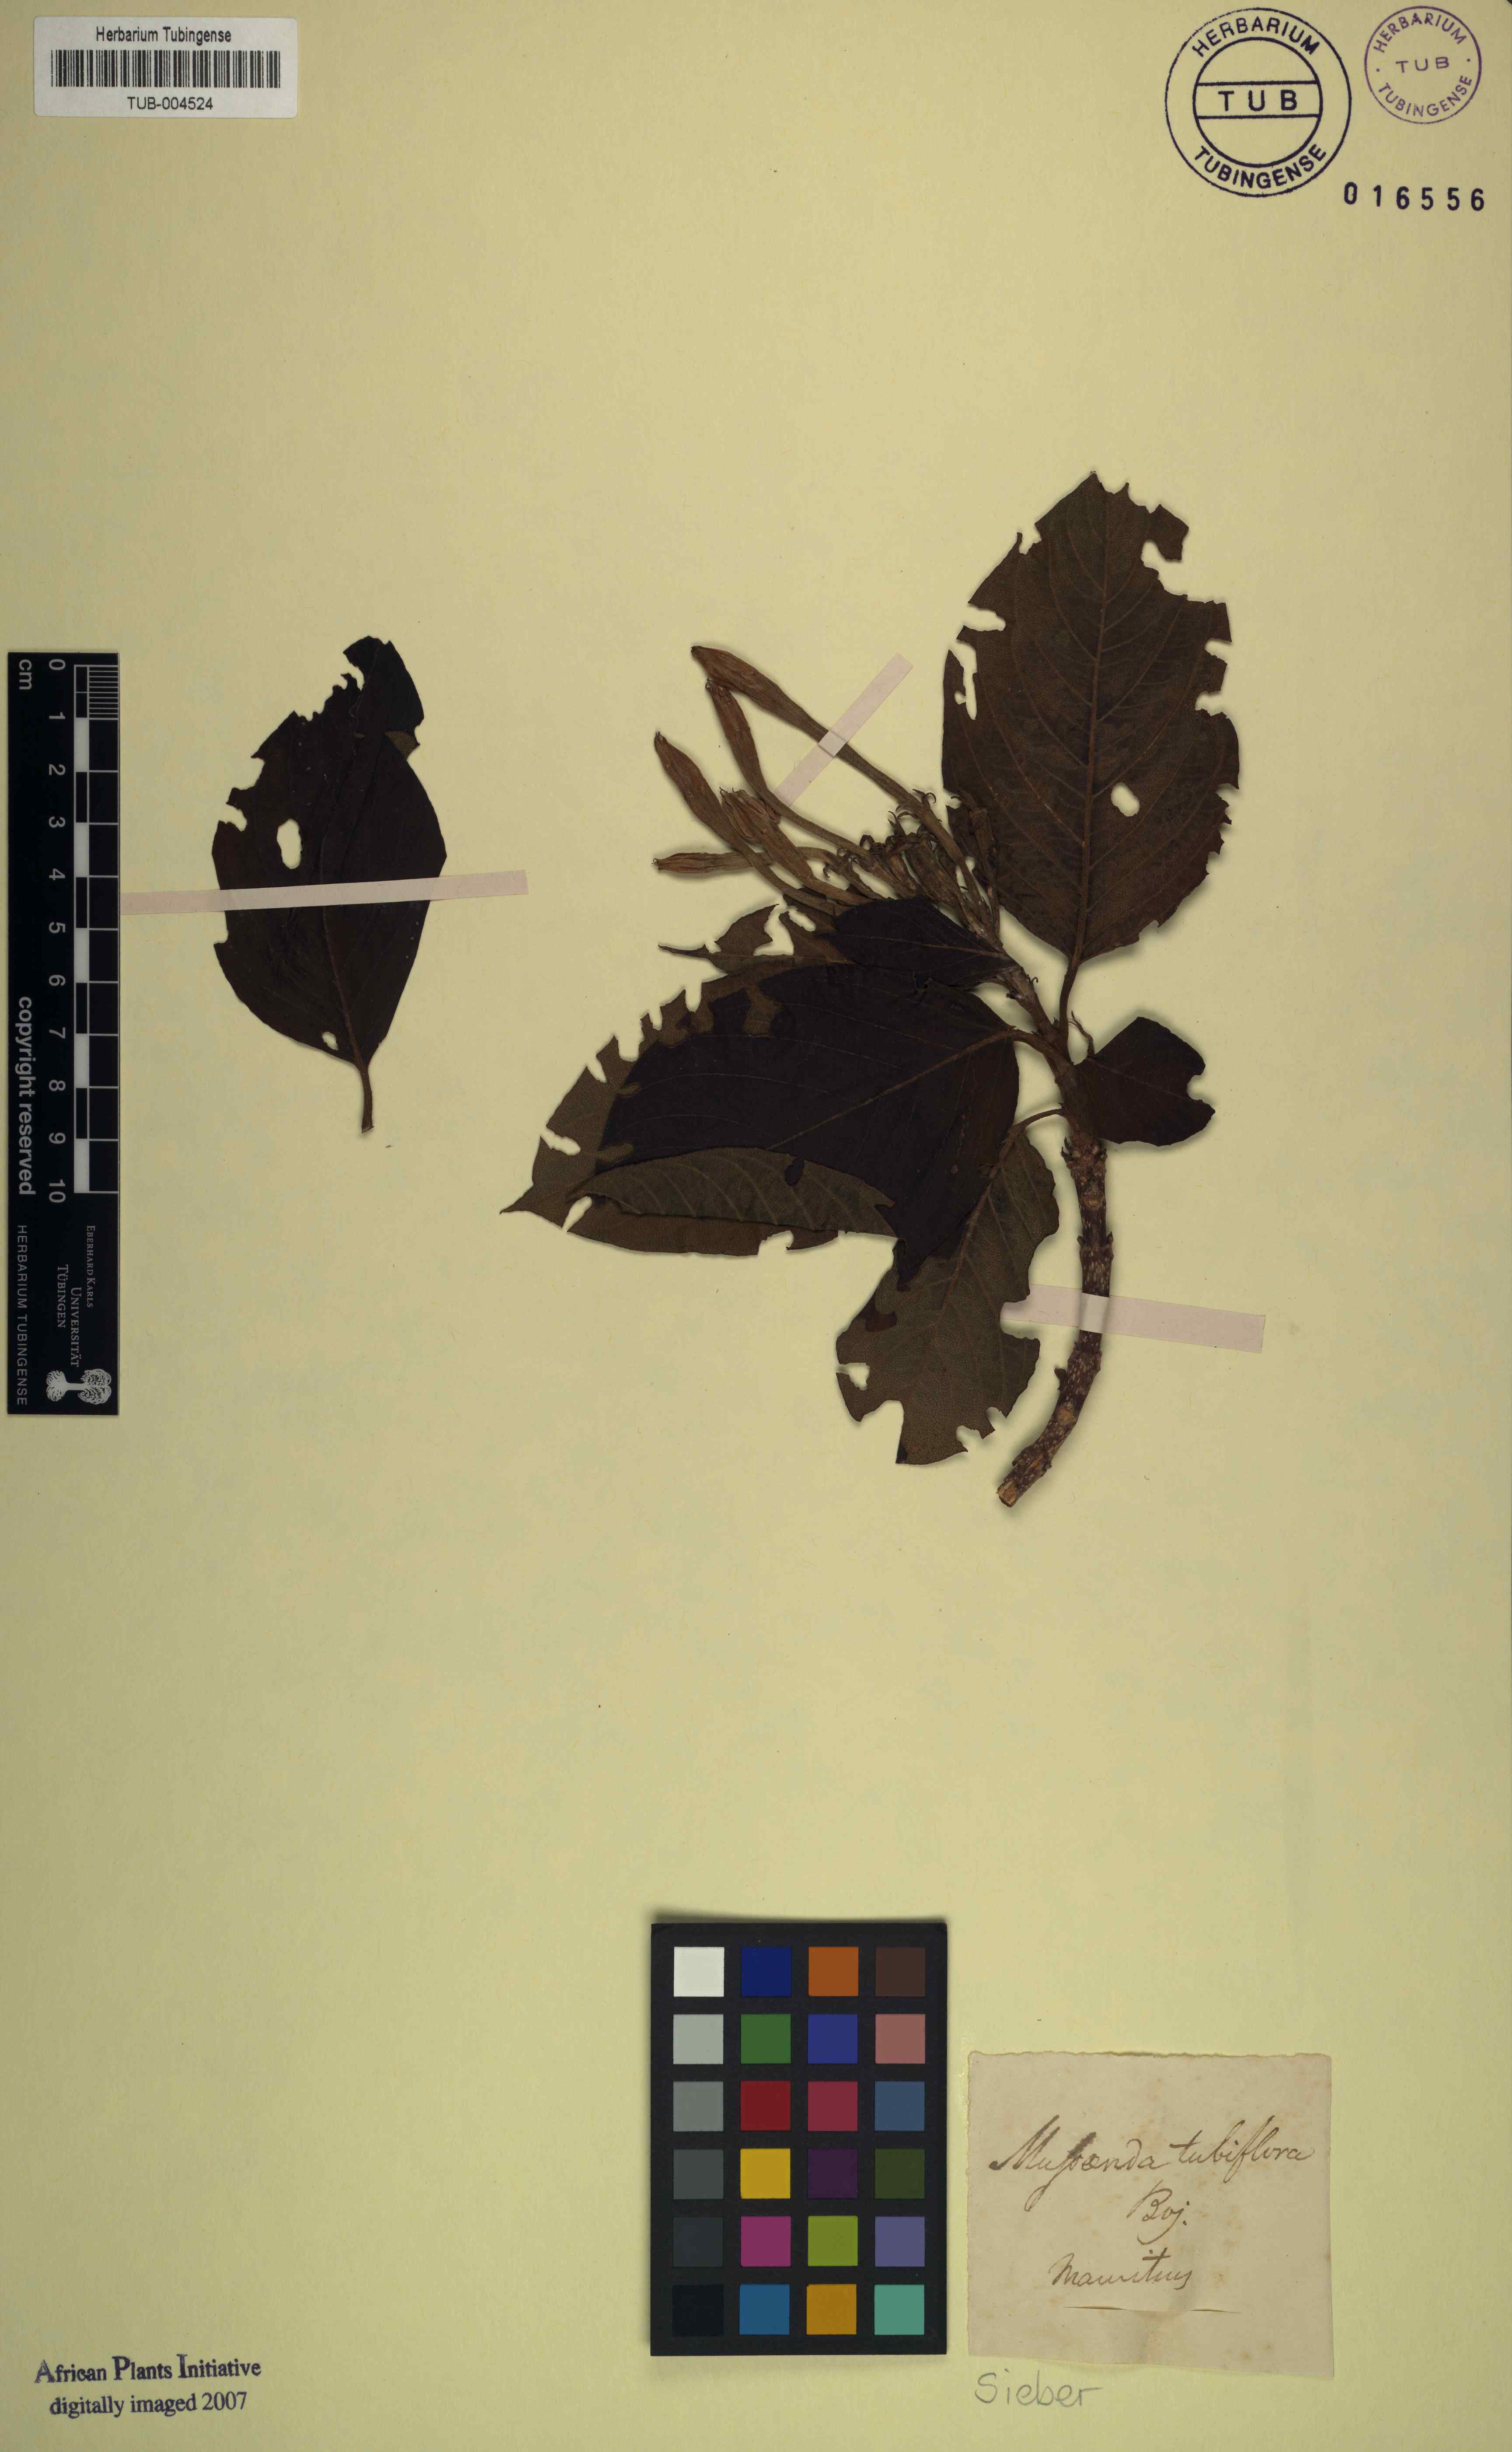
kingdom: Plantae
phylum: Tracheophyta
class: Magnoliopsida
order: Gentianales
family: Rubiaceae
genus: Mussaenda
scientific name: Mussaenda
